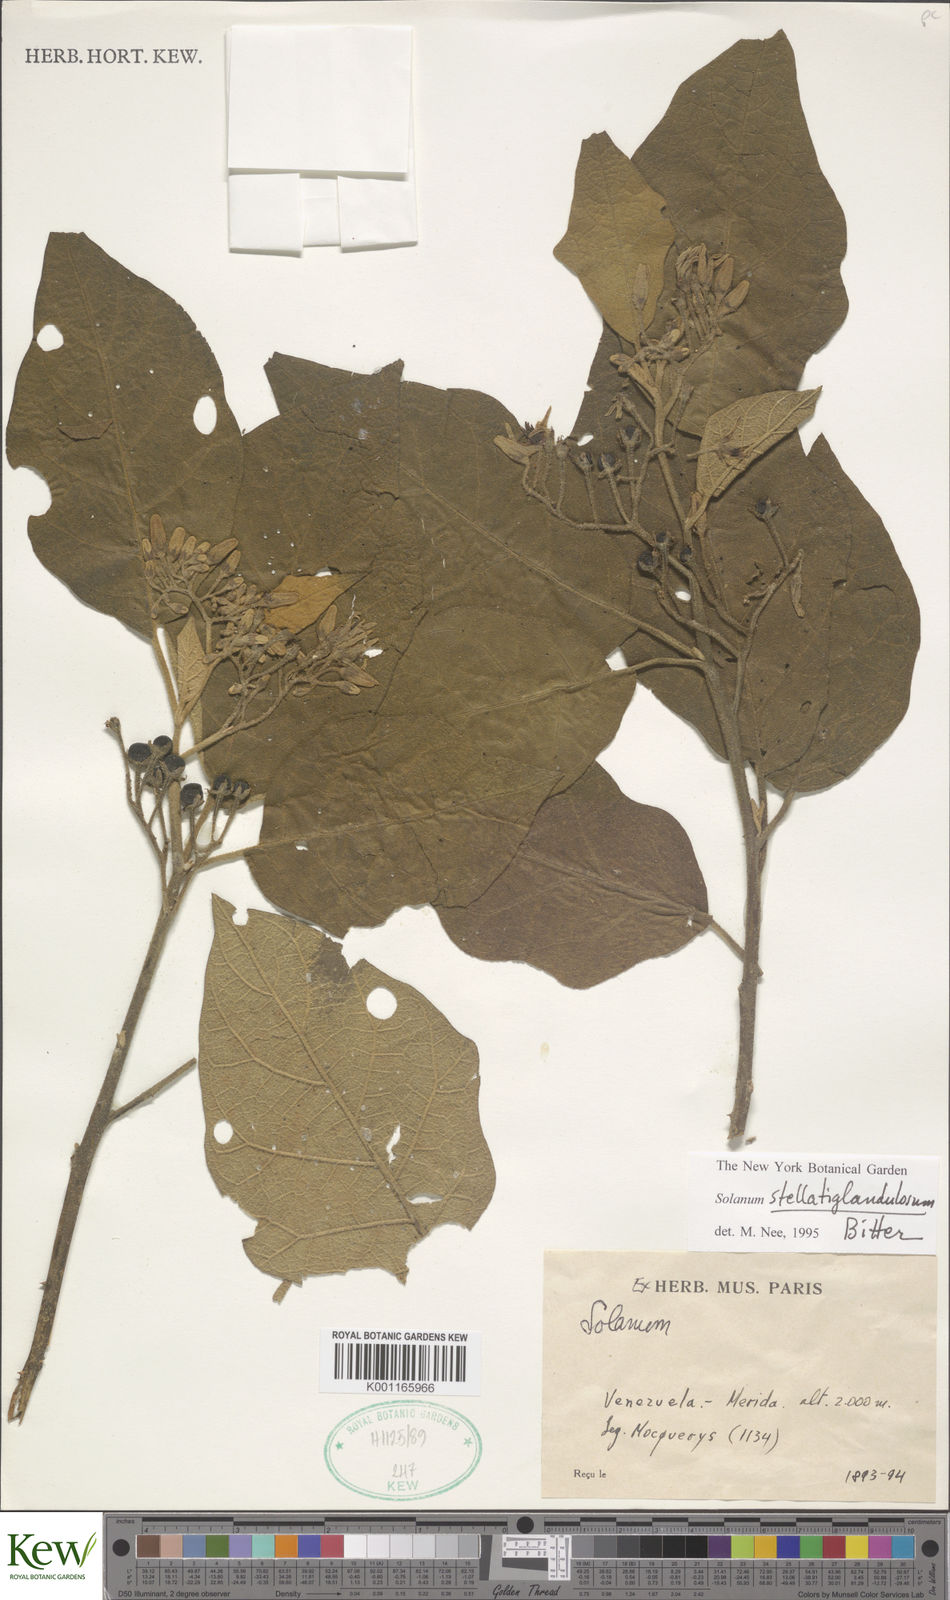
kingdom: Plantae
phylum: Tracheophyta
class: Magnoliopsida
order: Solanales
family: Solanaceae
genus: Solanum
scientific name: Solanum stellatiglandulosum
